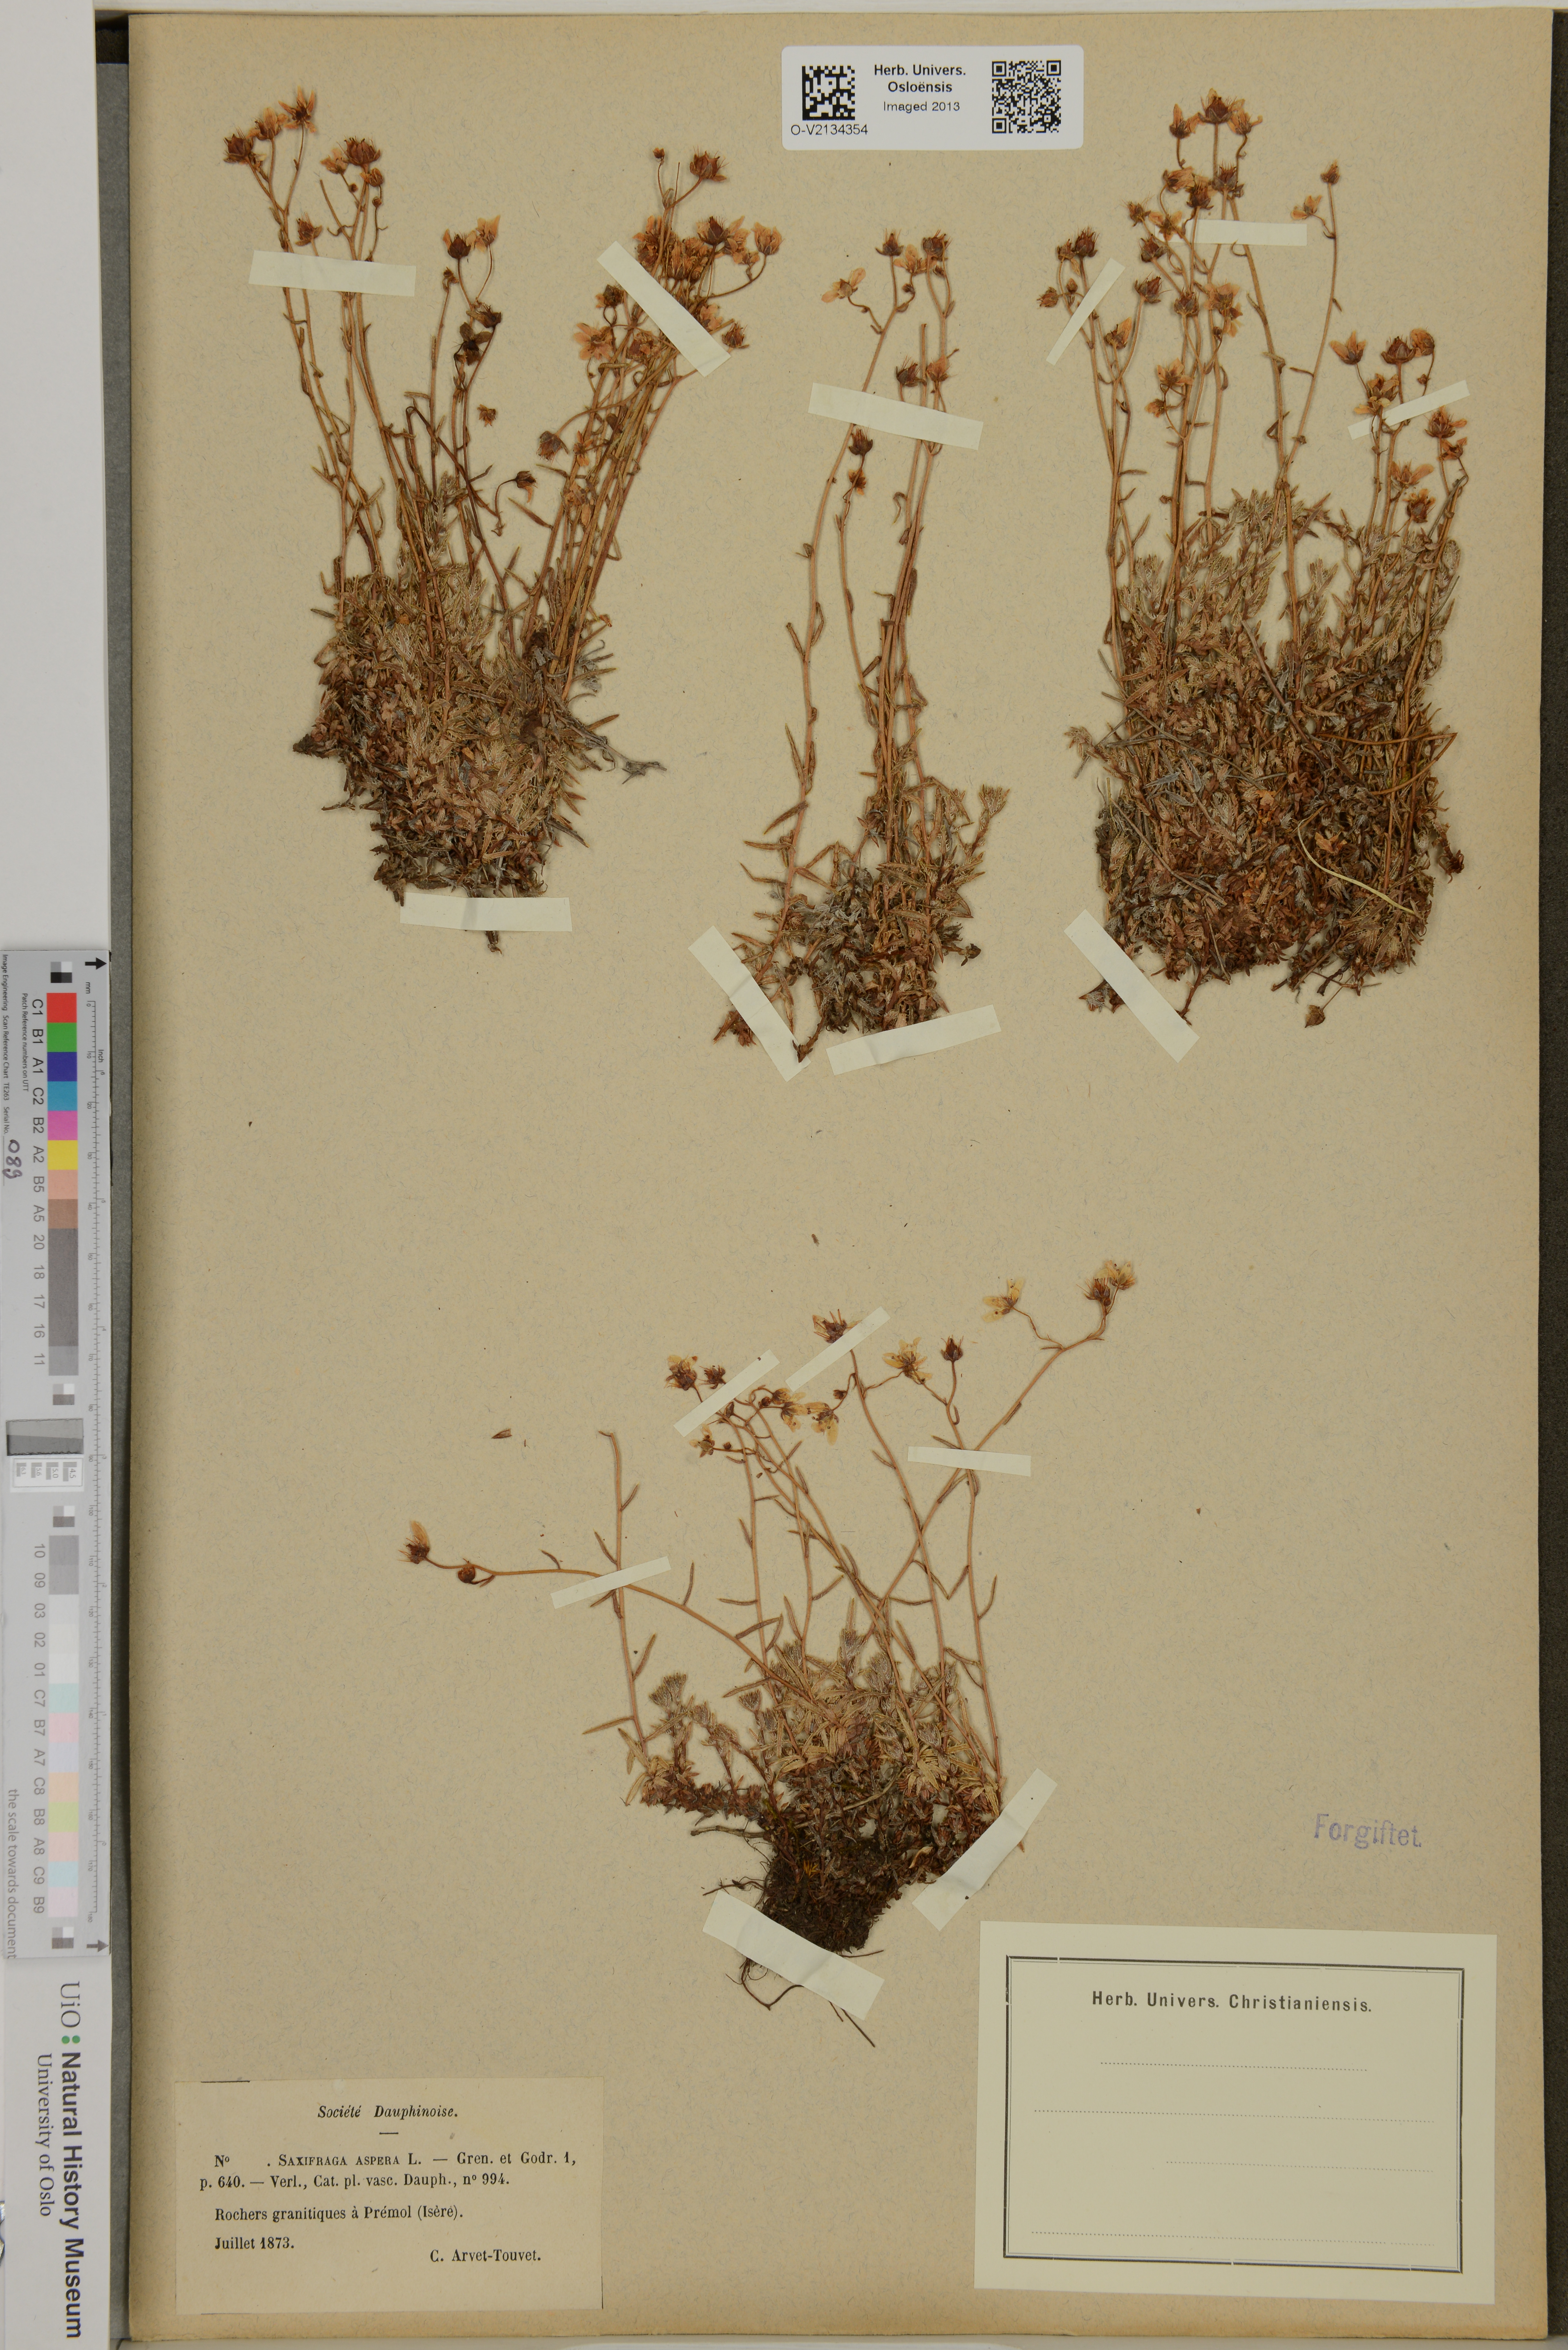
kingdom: Plantae
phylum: Tracheophyta
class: Magnoliopsida
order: Saxifragales
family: Saxifragaceae
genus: Saxifraga
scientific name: Saxifraga aspera
